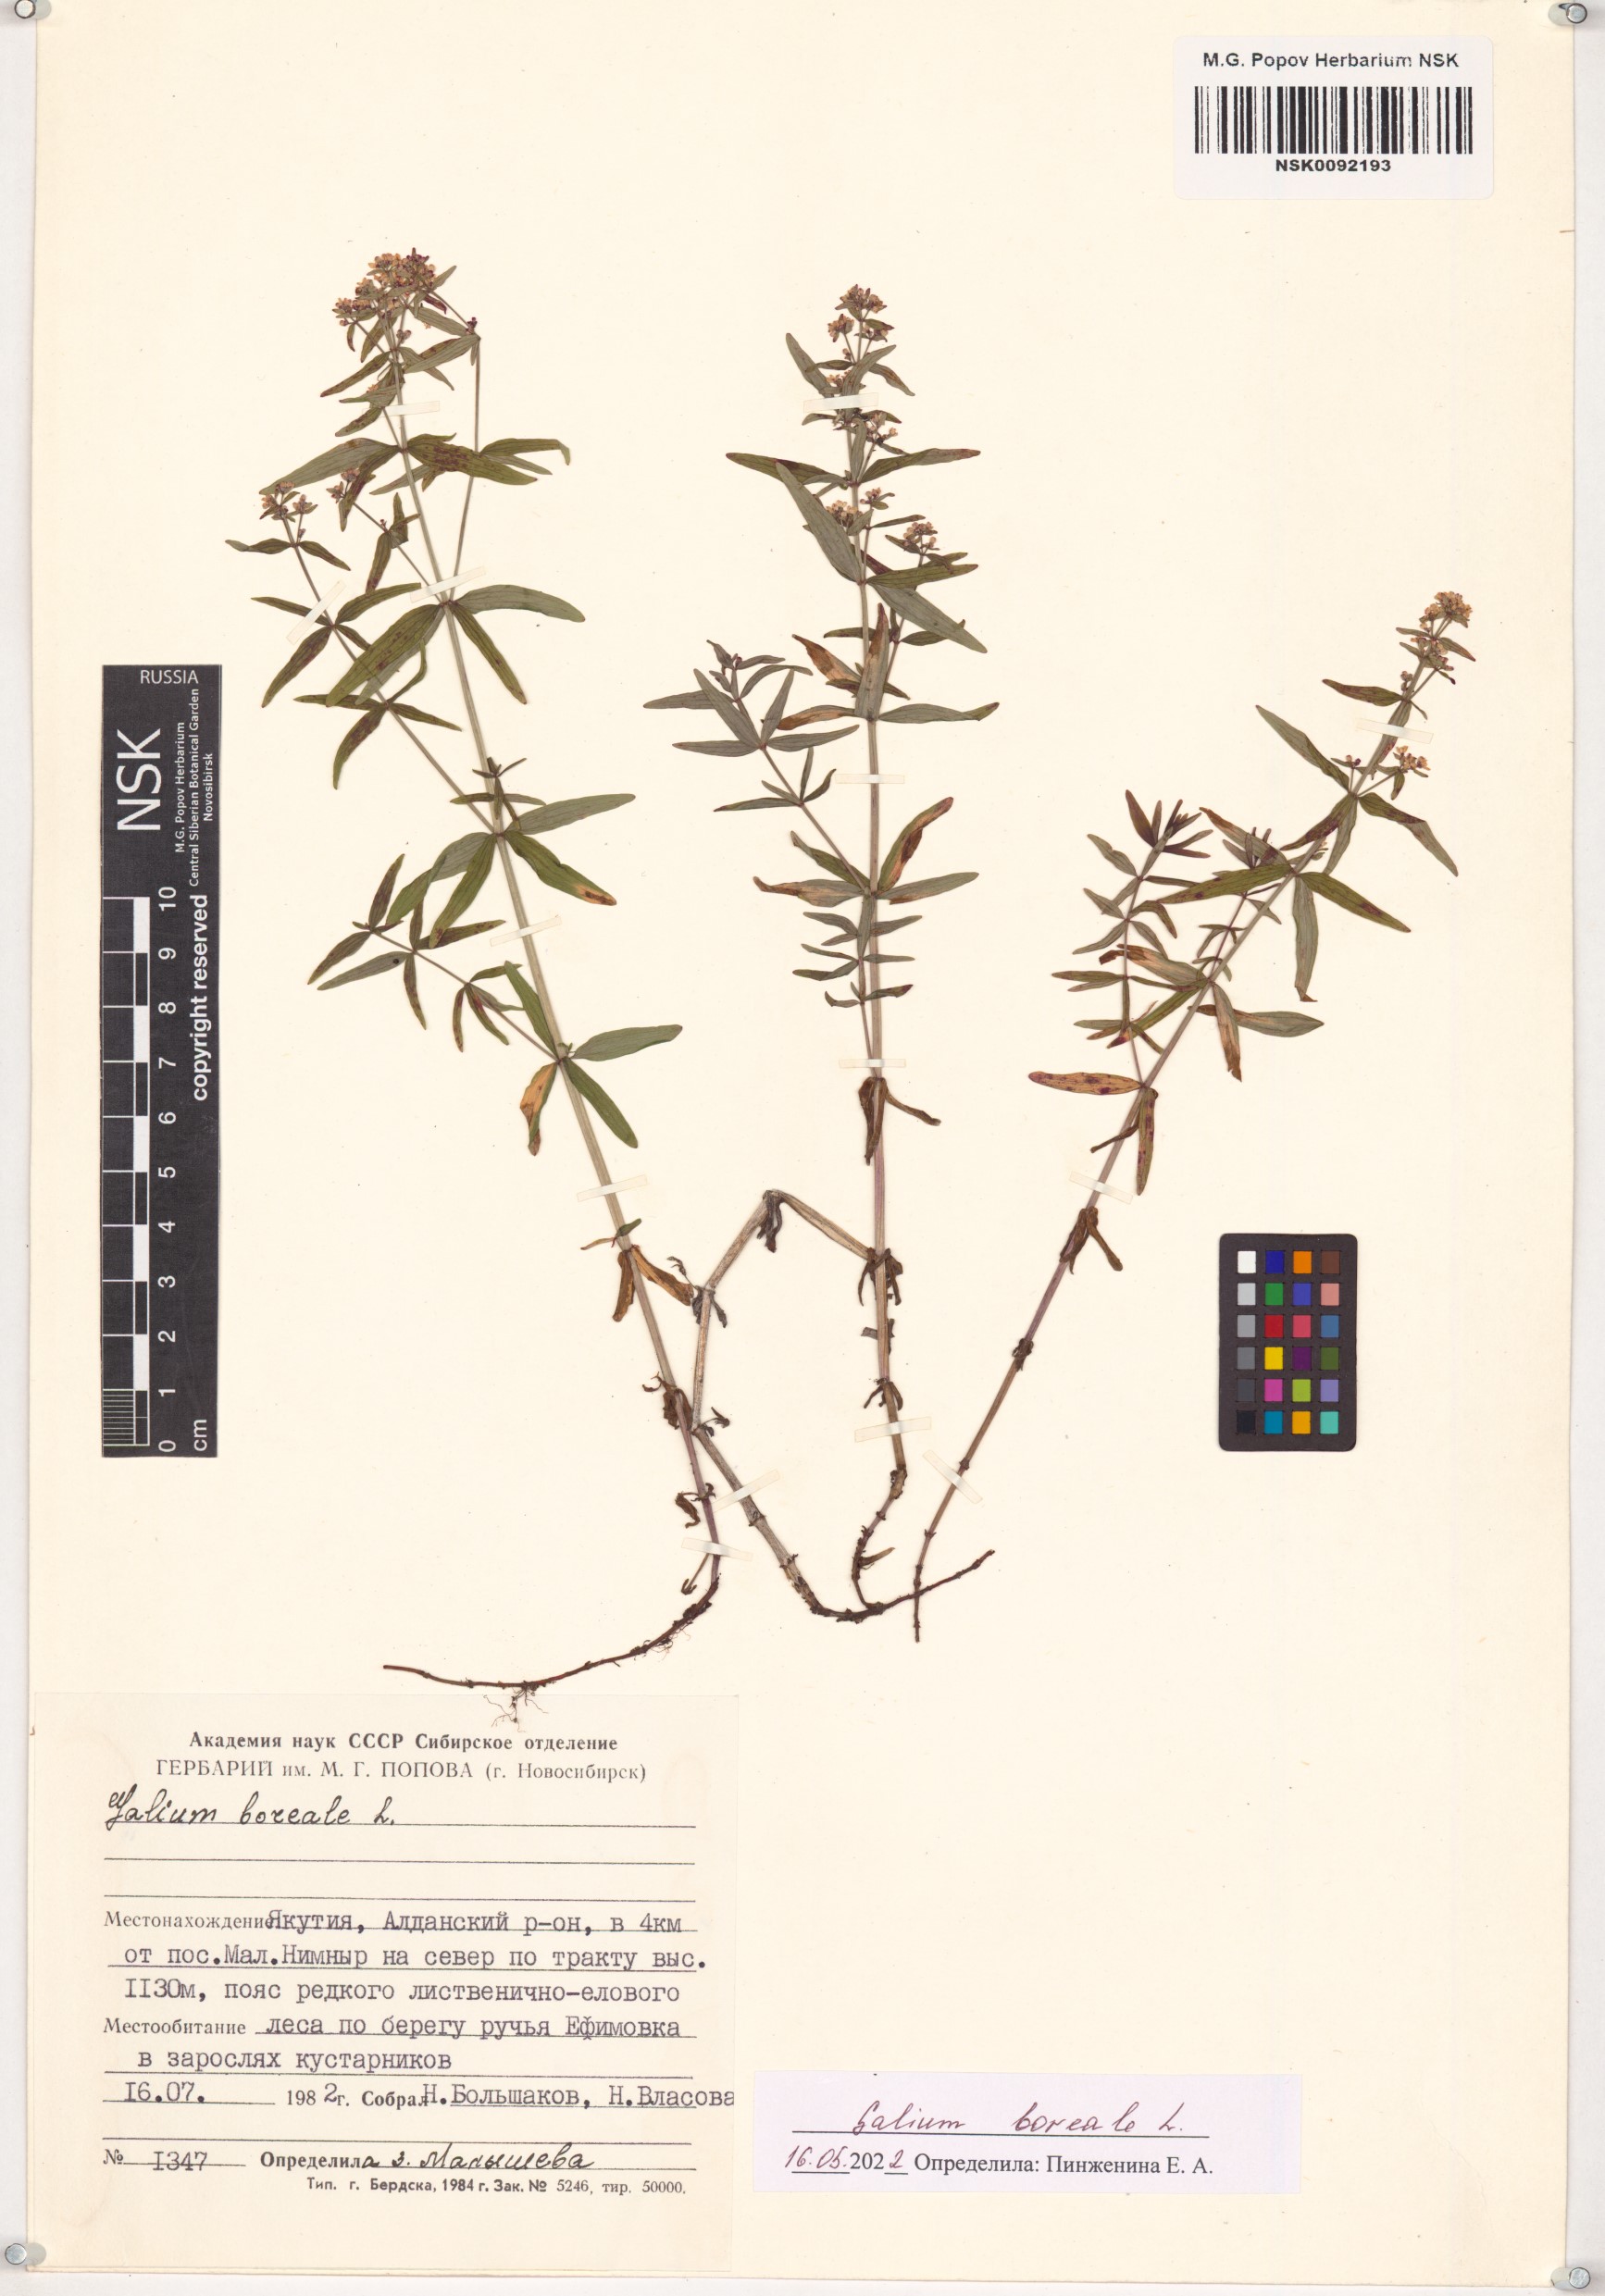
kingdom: Plantae
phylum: Tracheophyta
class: Magnoliopsida
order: Gentianales
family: Rubiaceae
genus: Galium
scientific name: Galium boreale
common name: Northern bedstraw
